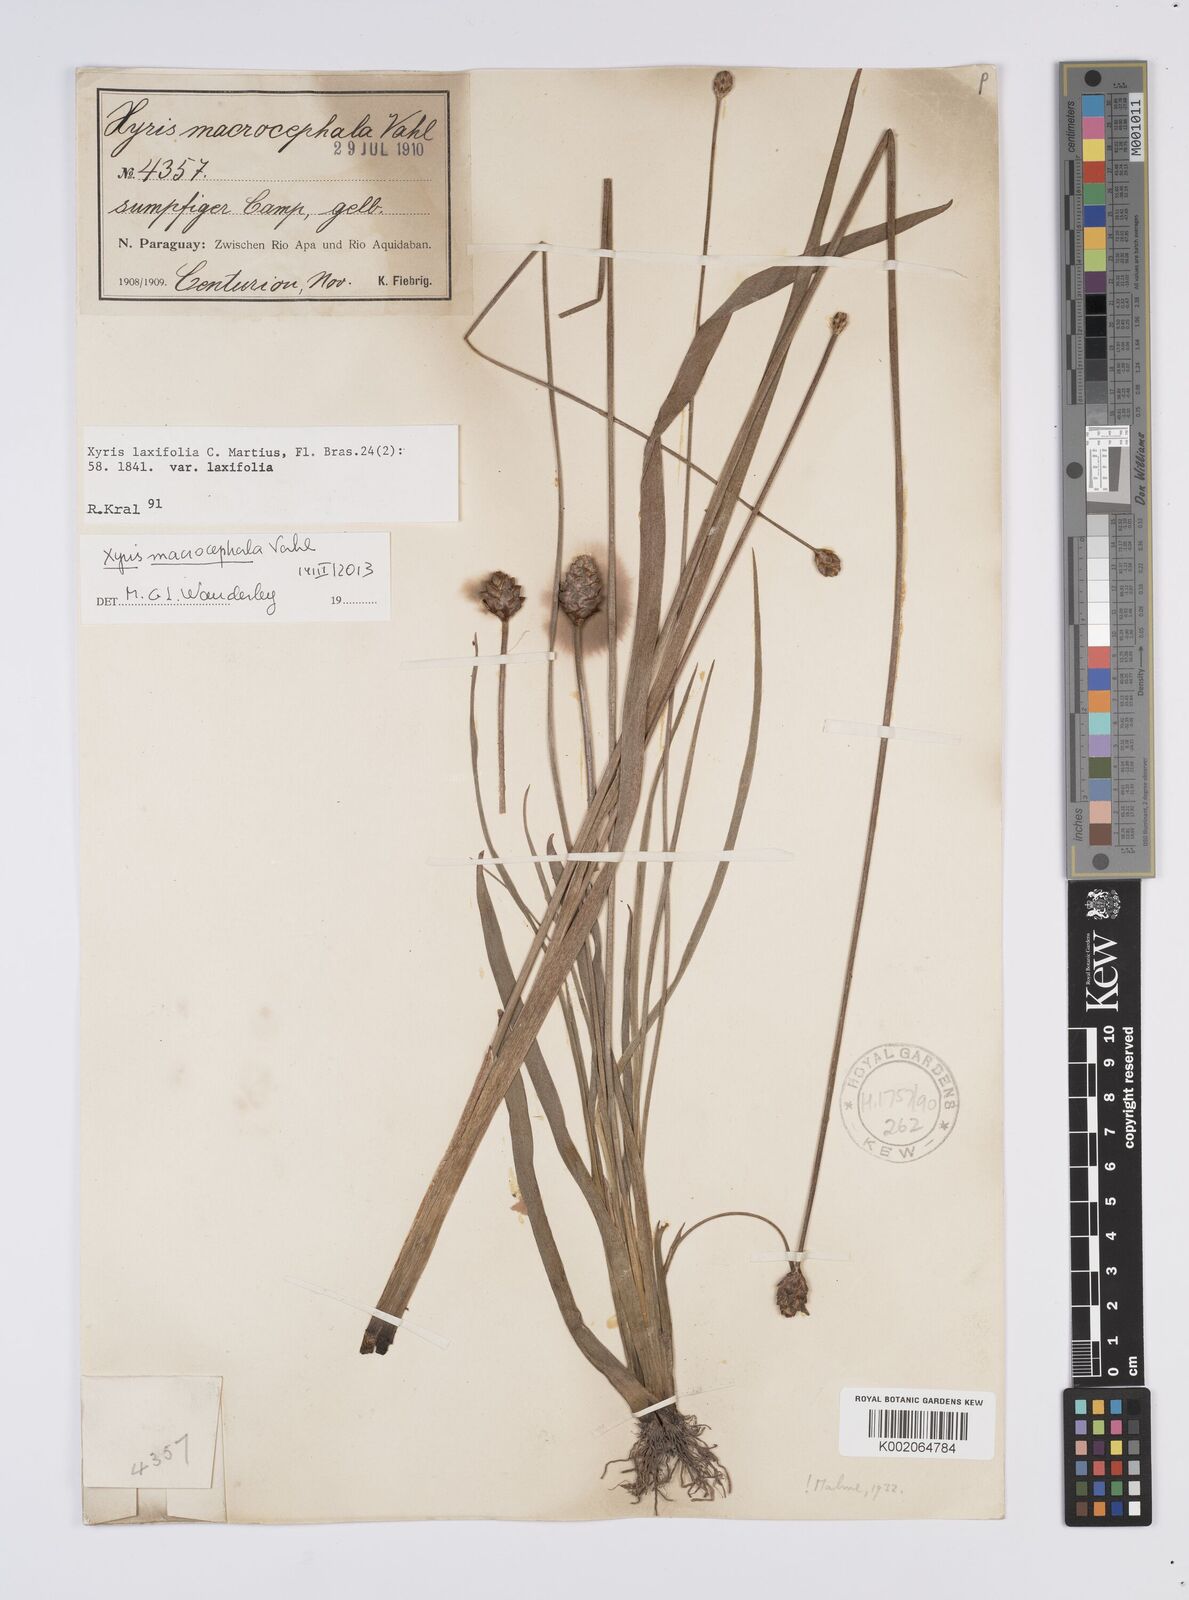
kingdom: Plantae
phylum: Tracheophyta
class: Liliopsida
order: Poales
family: Xyridaceae
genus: Xyris
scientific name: Xyris laxifolia
